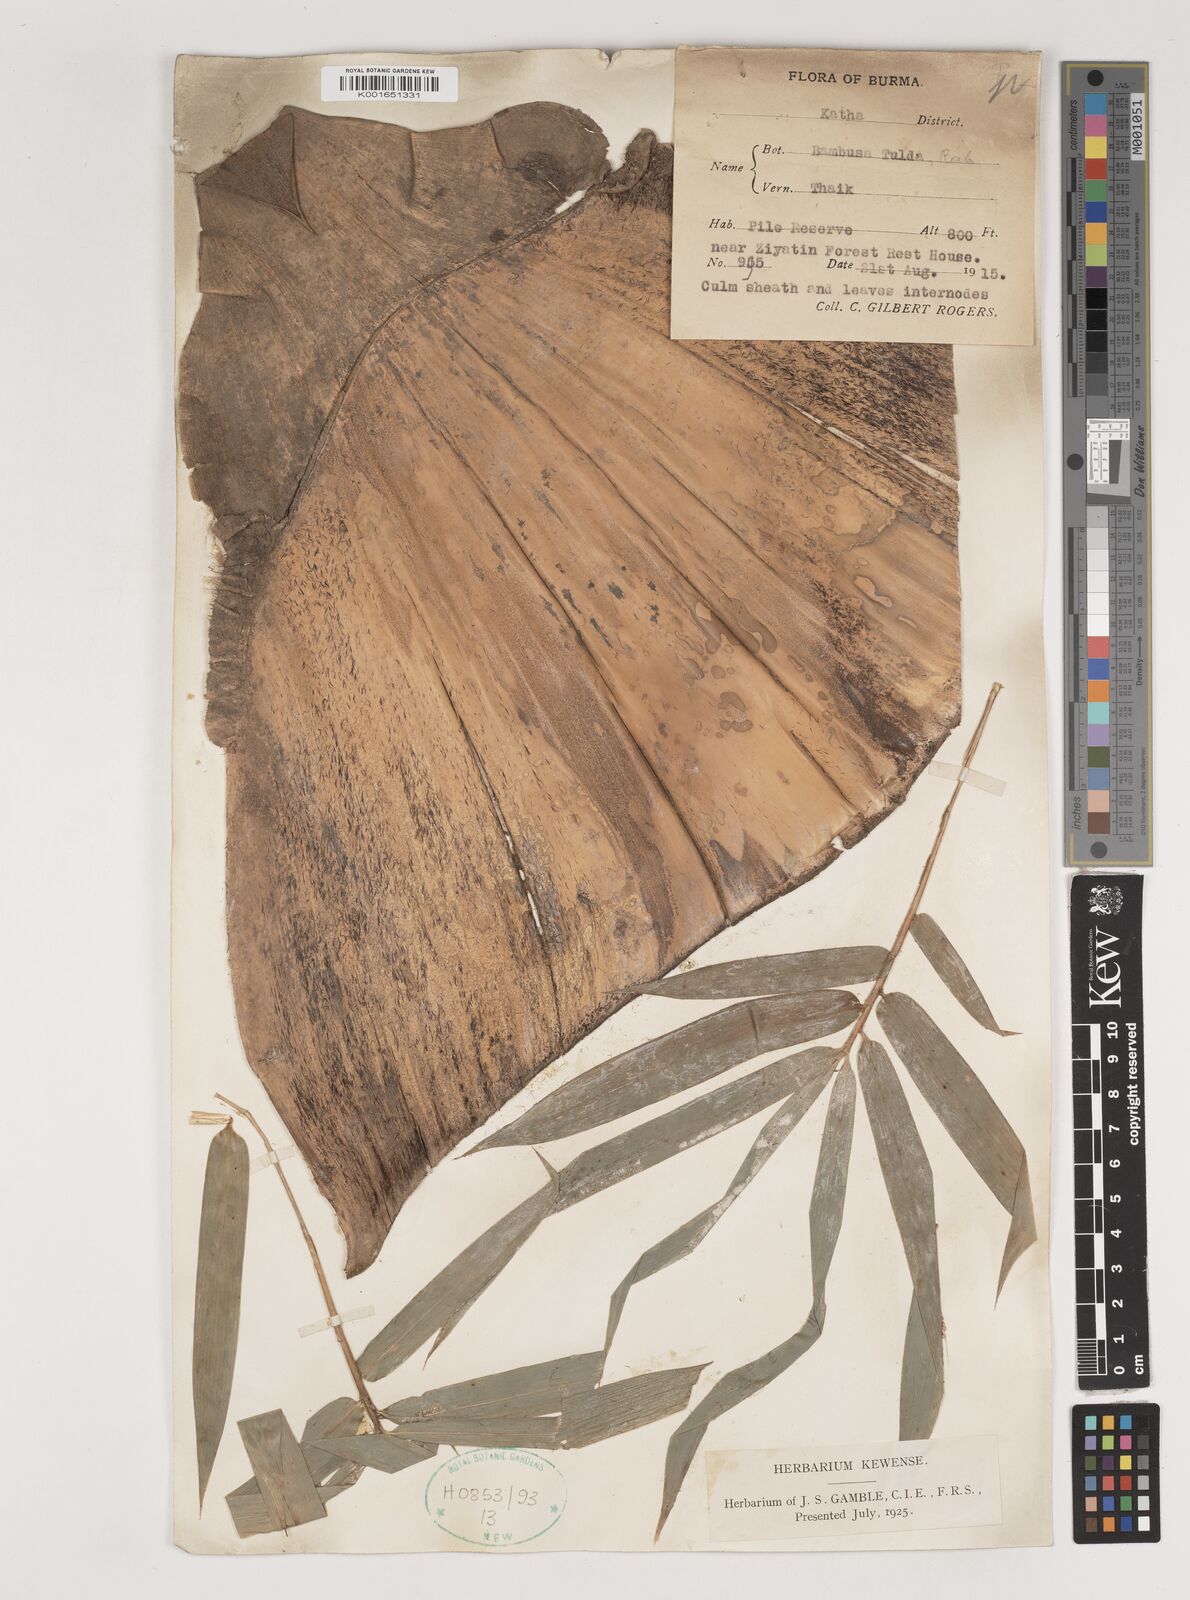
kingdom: Plantae
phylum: Tracheophyta
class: Liliopsida
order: Poales
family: Poaceae
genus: Bambusa
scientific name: Bambusa tulda
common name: Bengal bamboo
